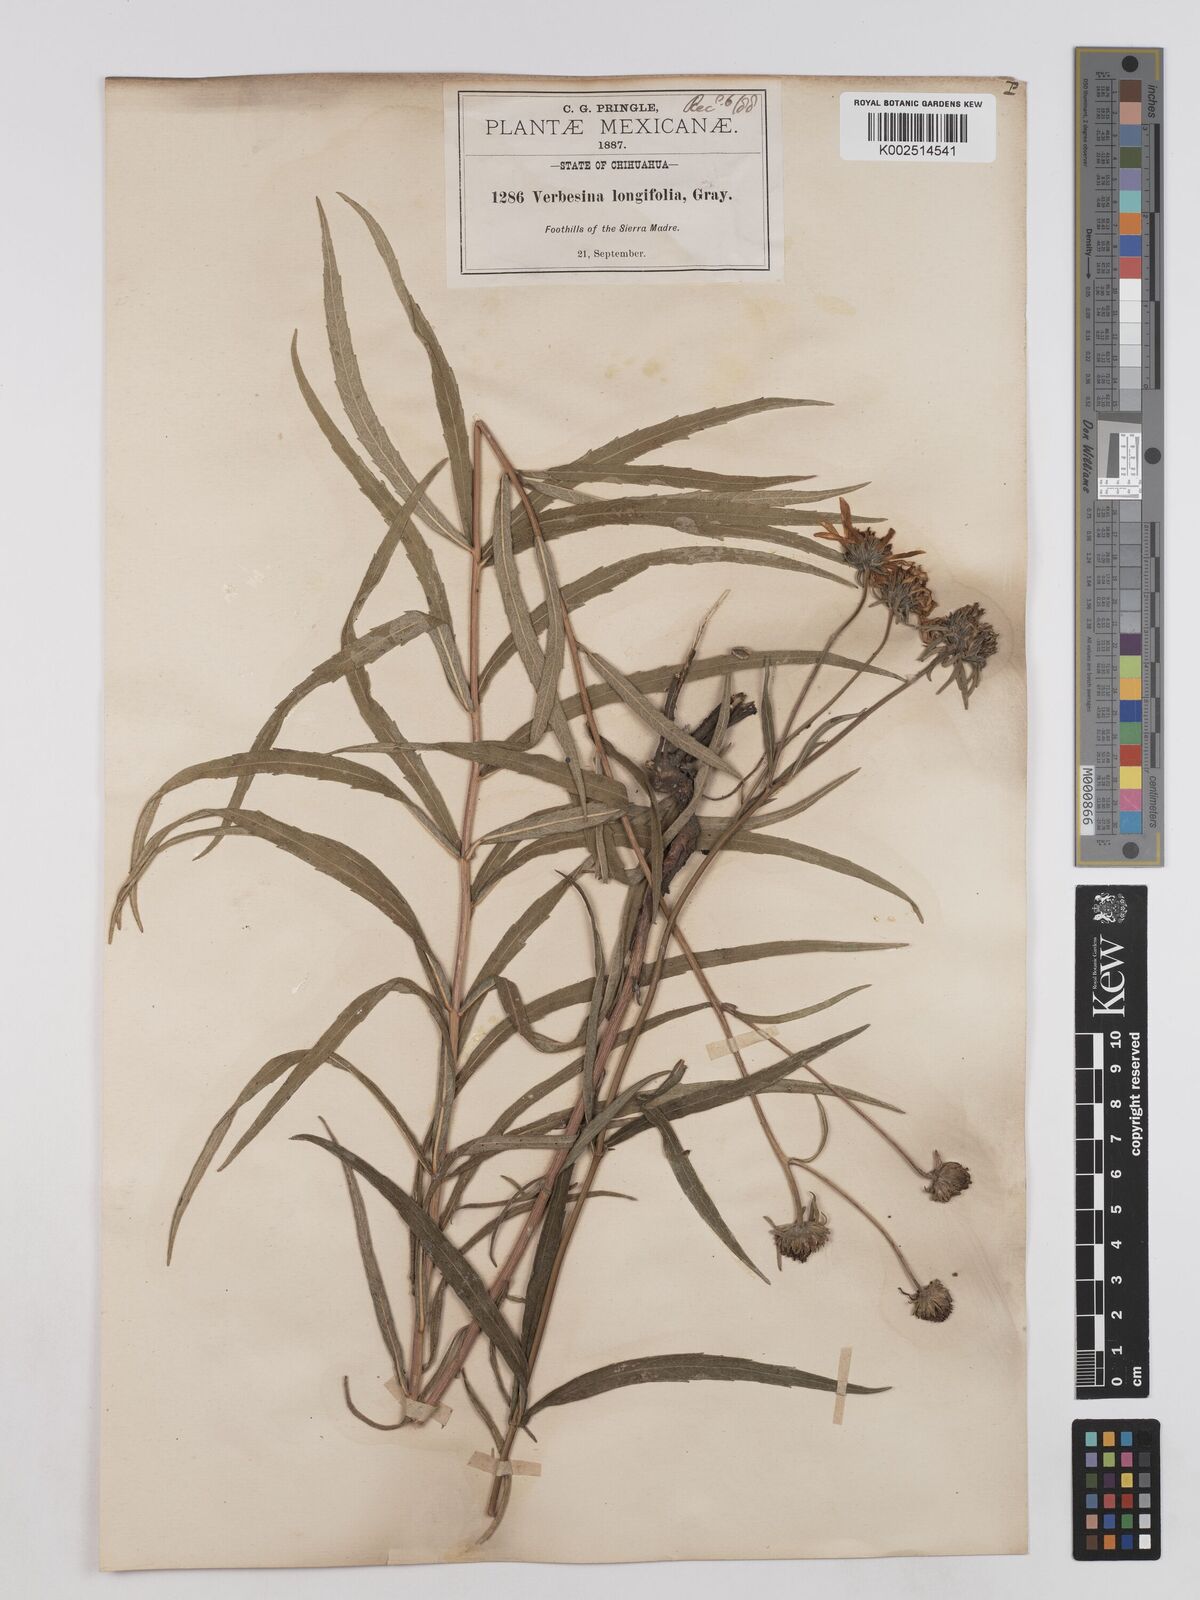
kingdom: Plantae
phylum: Tracheophyta
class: Magnoliopsida
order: Asterales
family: Asteraceae
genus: Verbesina
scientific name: Verbesina longifolia
